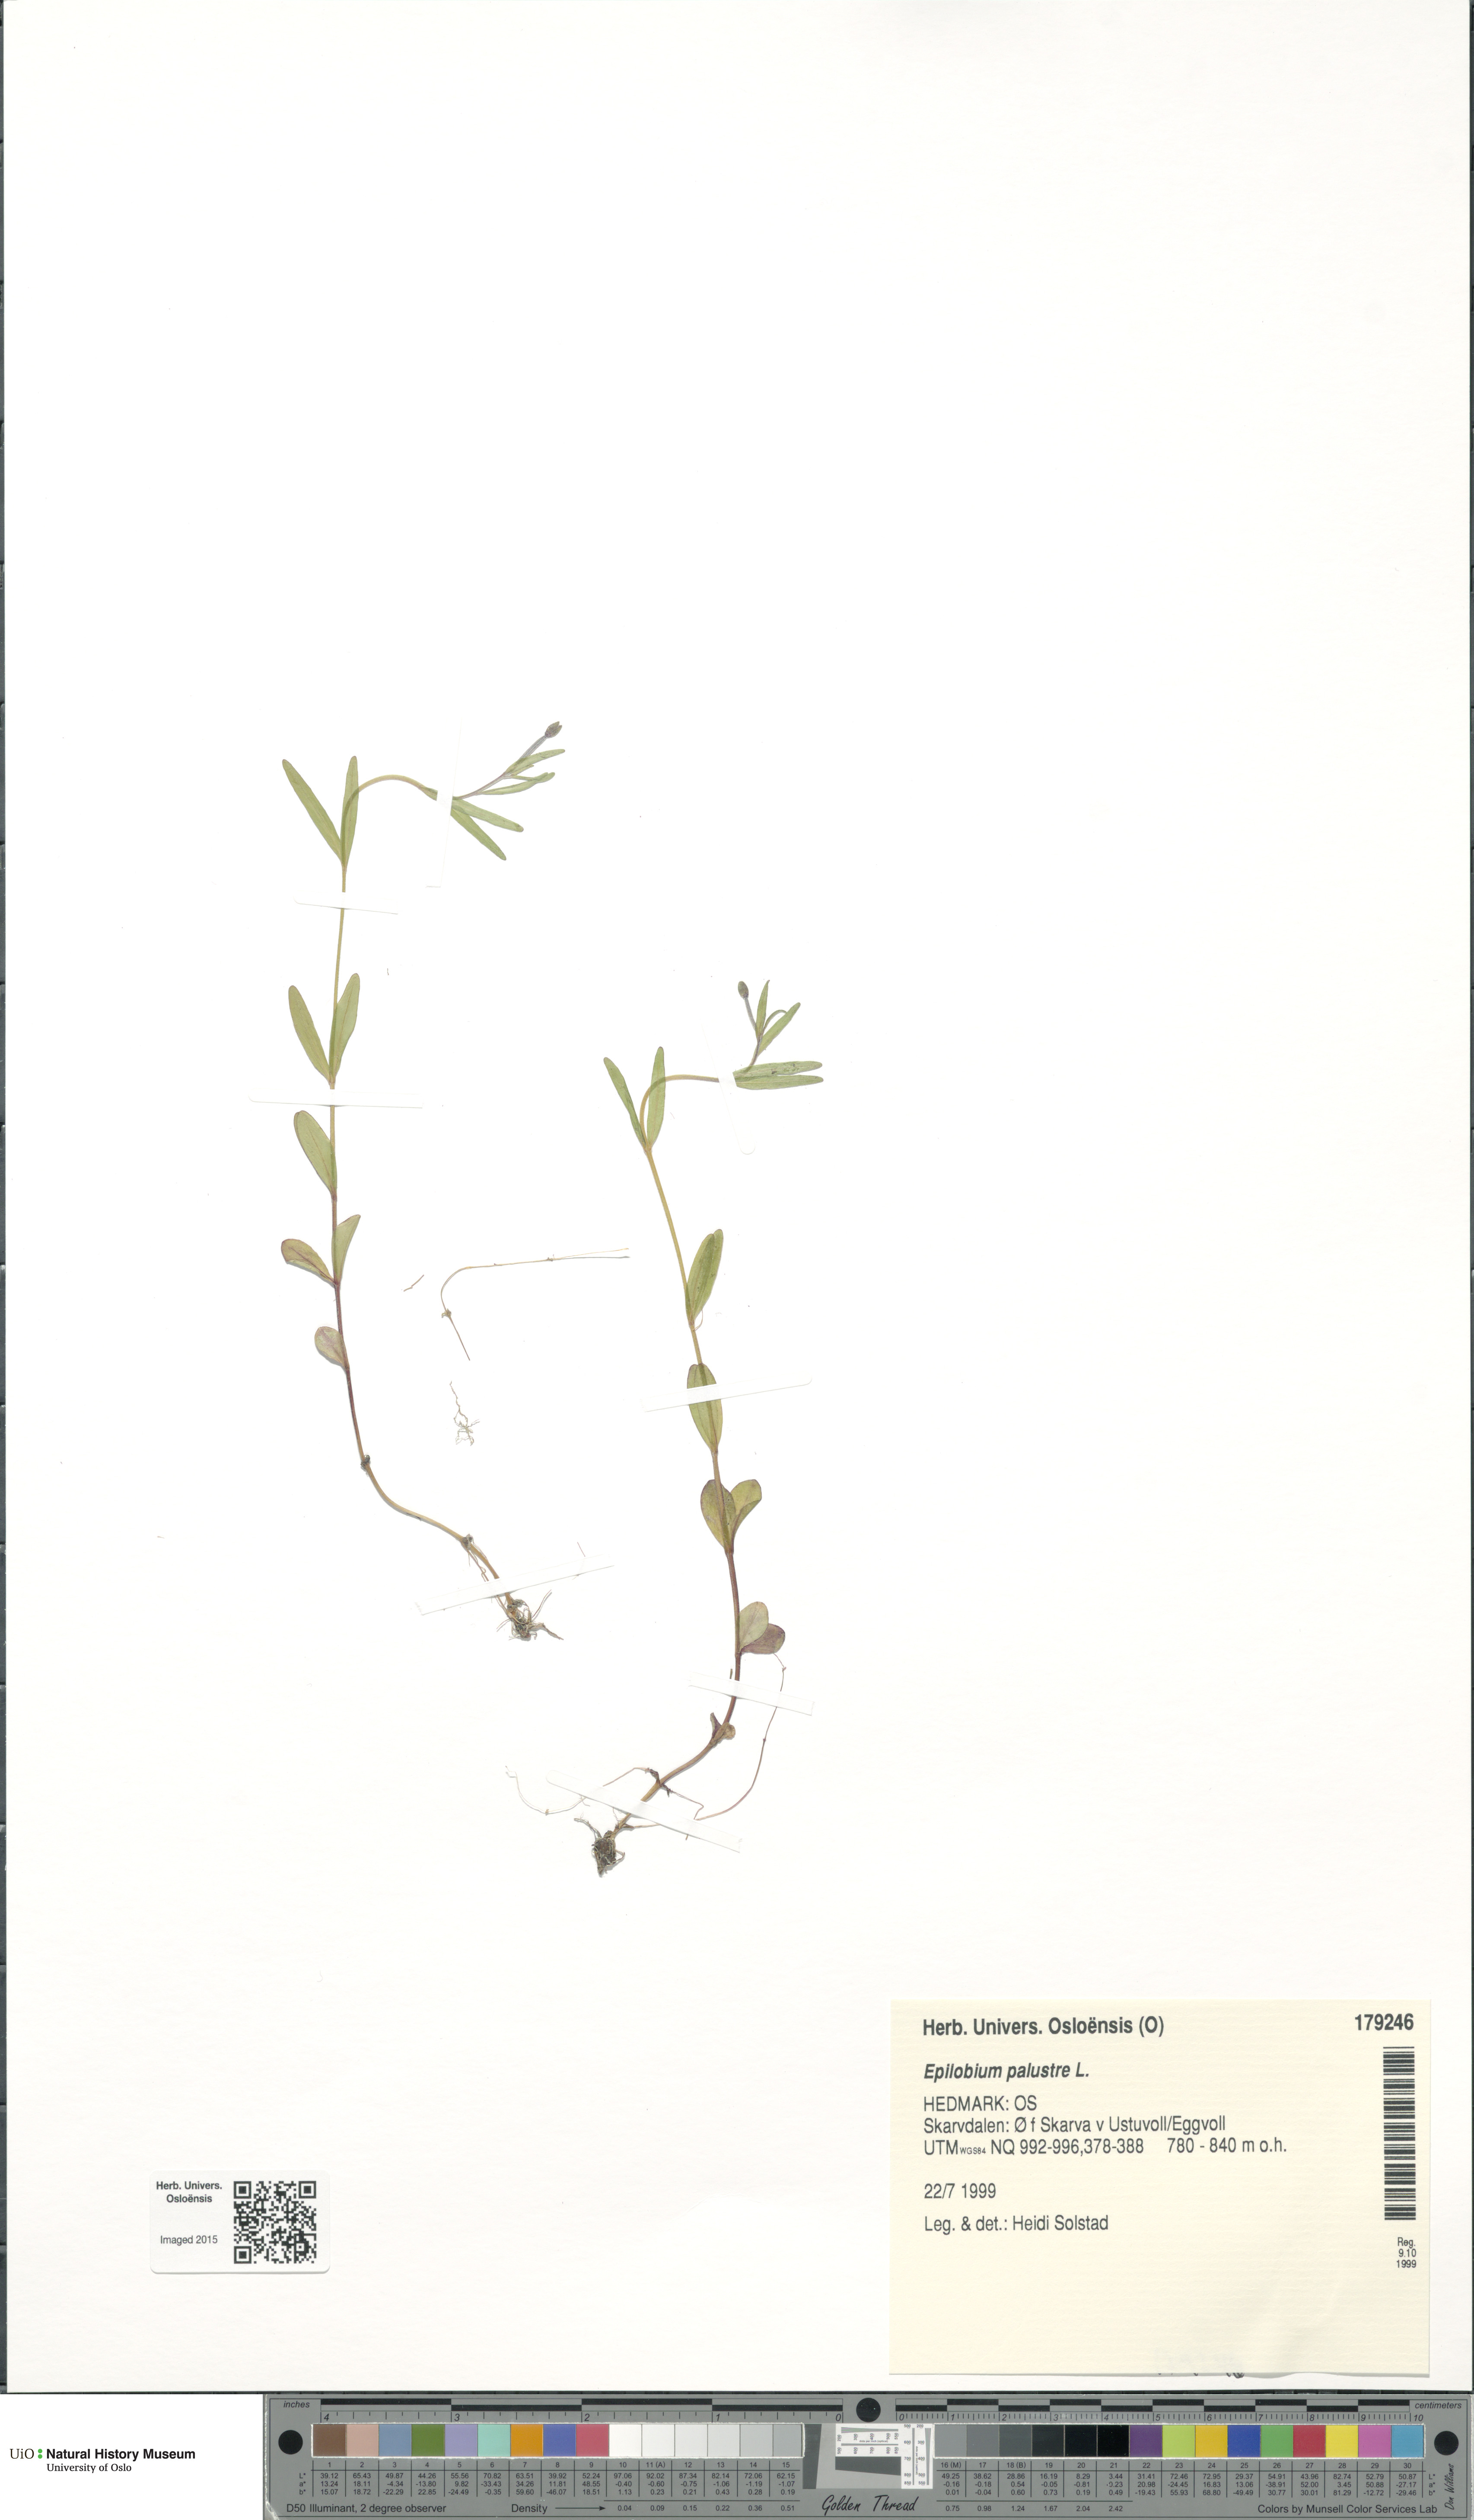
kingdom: Plantae
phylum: Tracheophyta
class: Magnoliopsida
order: Myrtales
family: Onagraceae
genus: Epilobium
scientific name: Epilobium palustre
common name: Marsh willowherb
